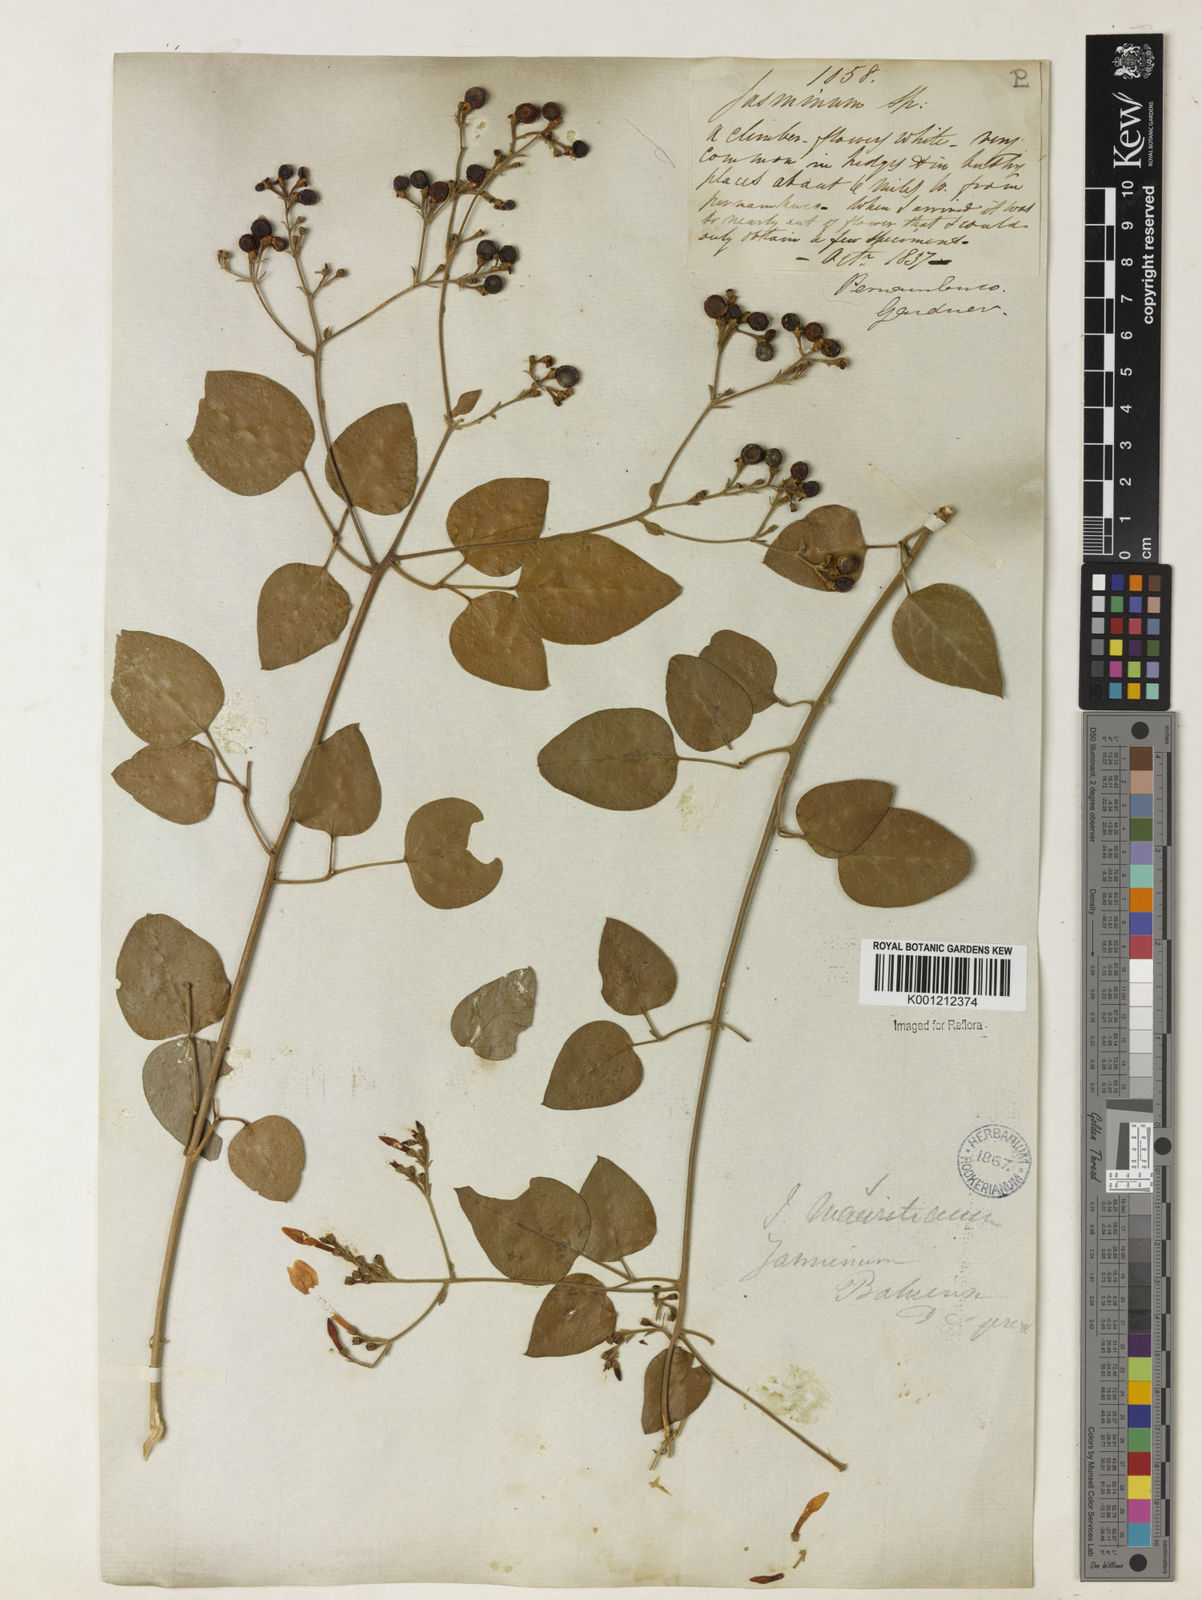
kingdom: Plantae
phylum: Tracheophyta
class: Magnoliopsida
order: Lamiales
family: Oleaceae
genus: Jasminum
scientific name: Jasminum fluminense
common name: Brazilian jasmine
